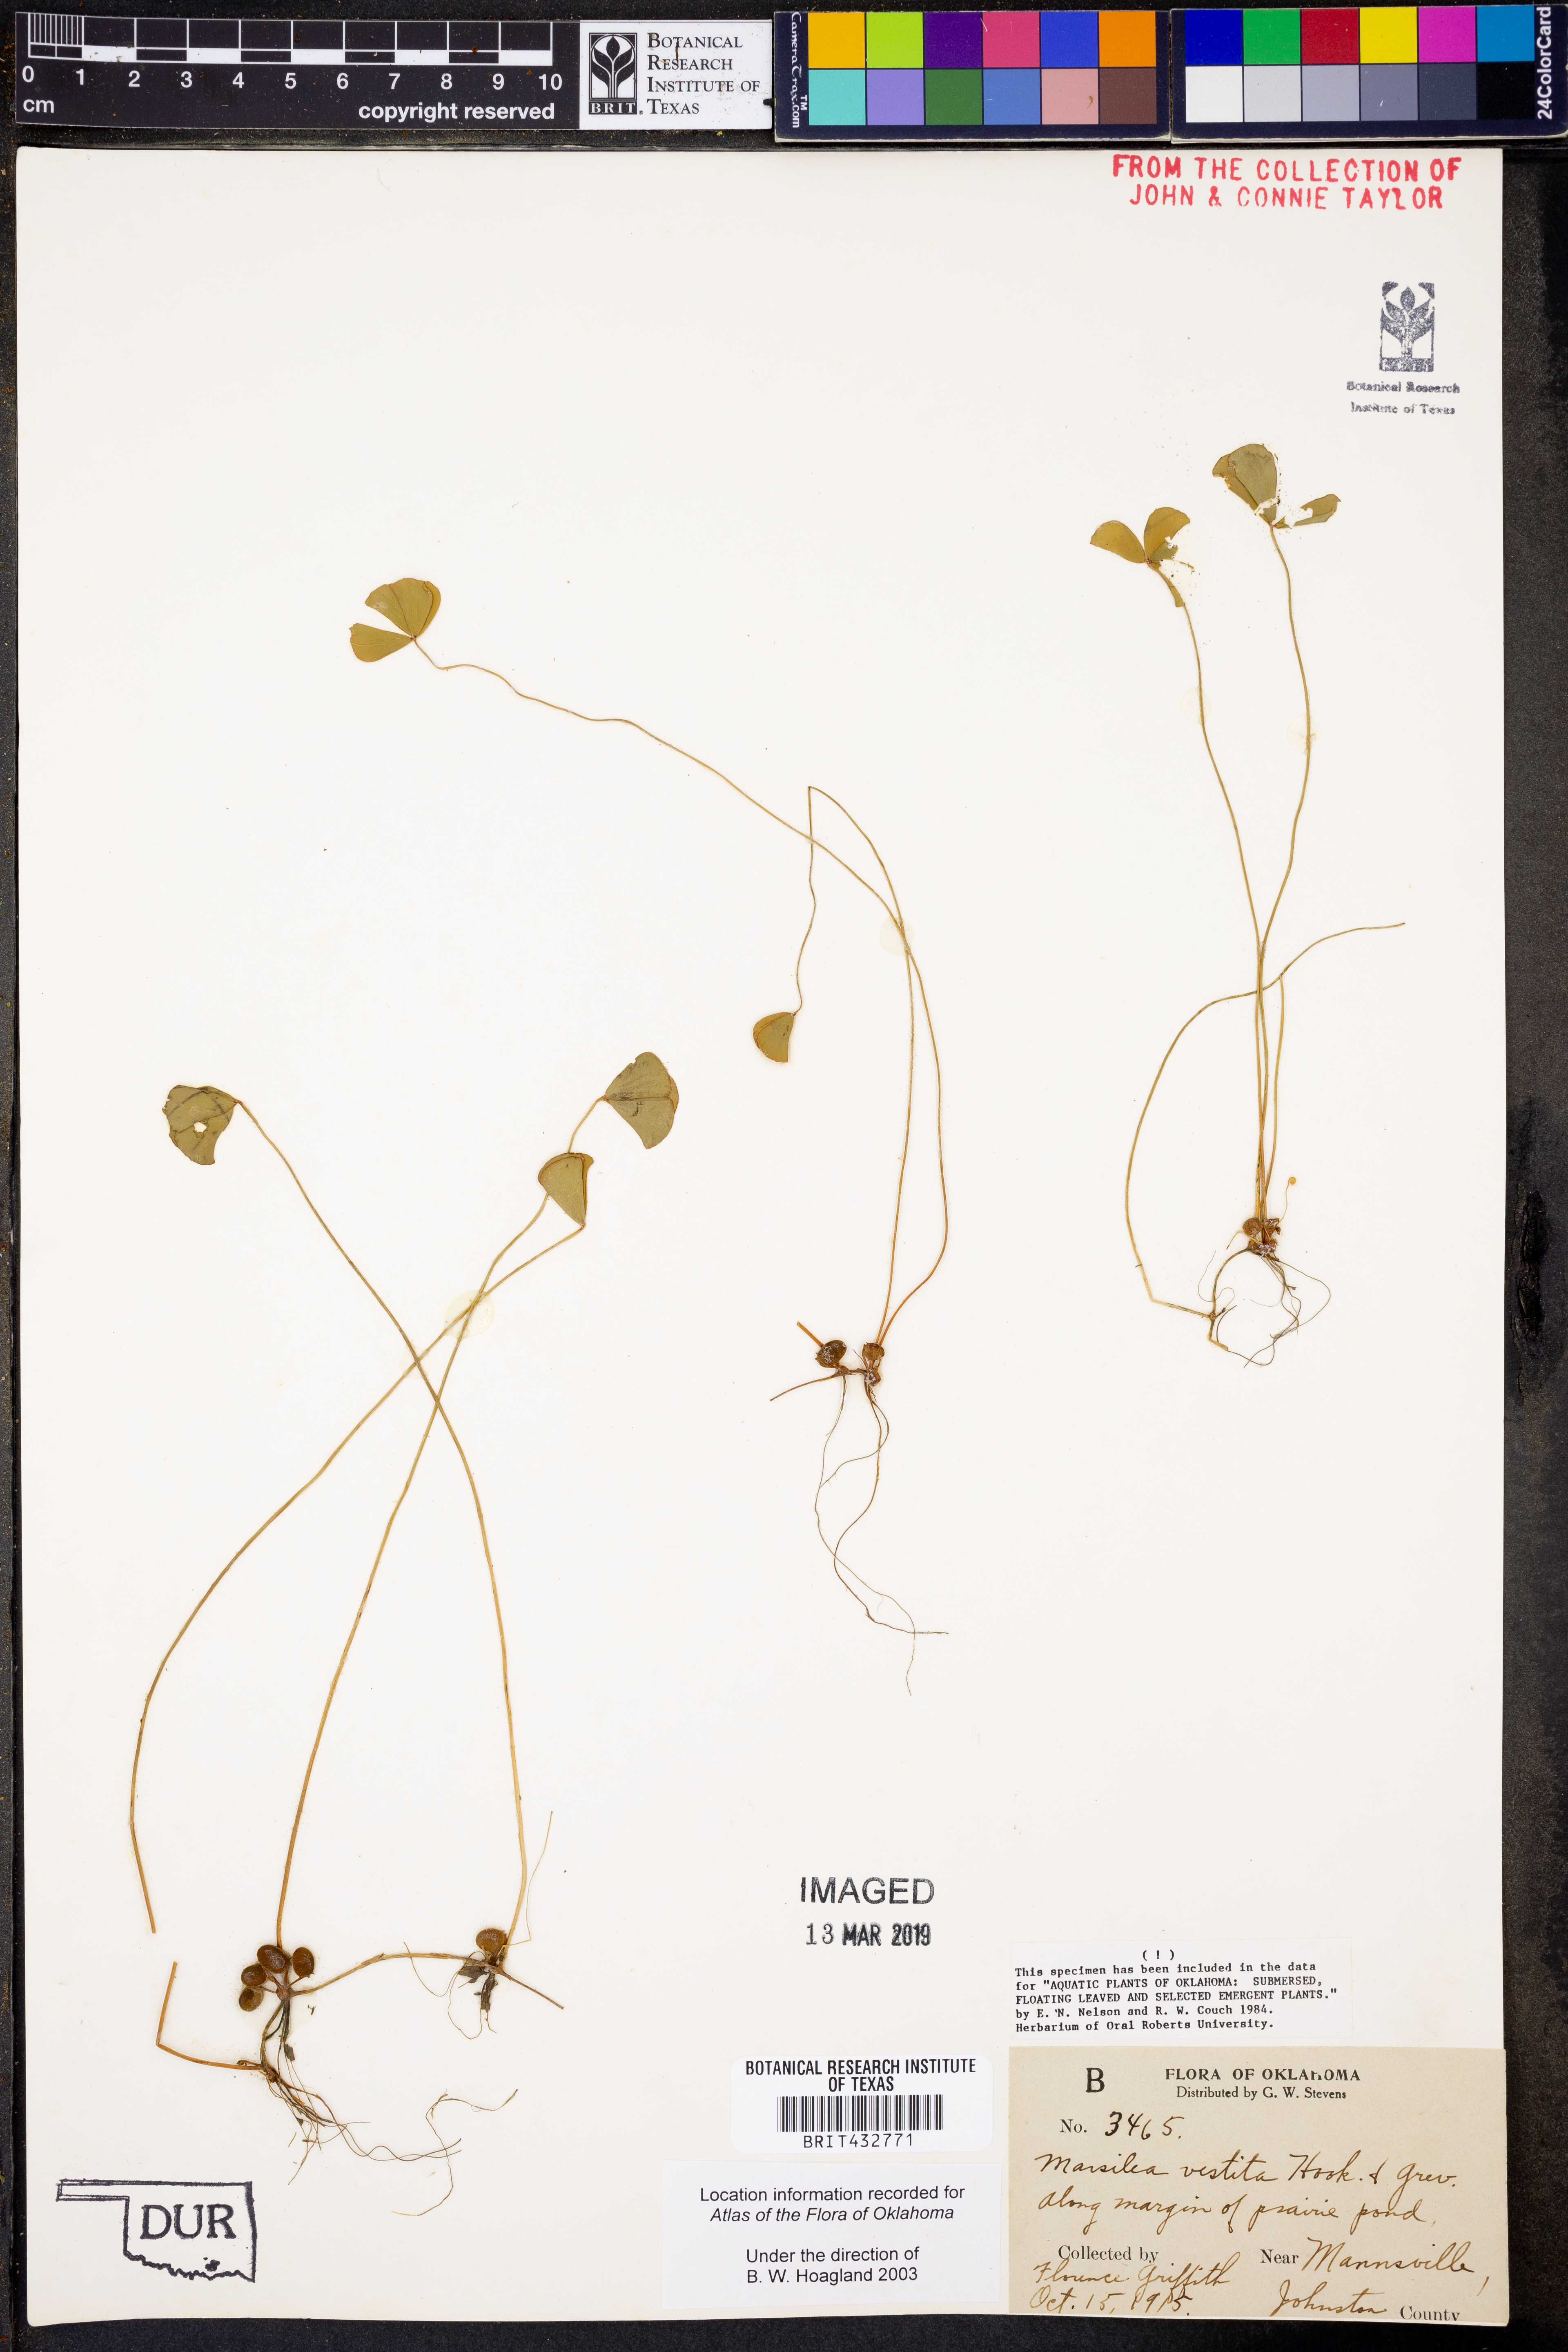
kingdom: Plantae
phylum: Tracheophyta
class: Polypodiopsida
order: Salviniales
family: Marsileaceae
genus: Marsilea
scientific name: Marsilea vestita
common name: Hooked-pepperwort
